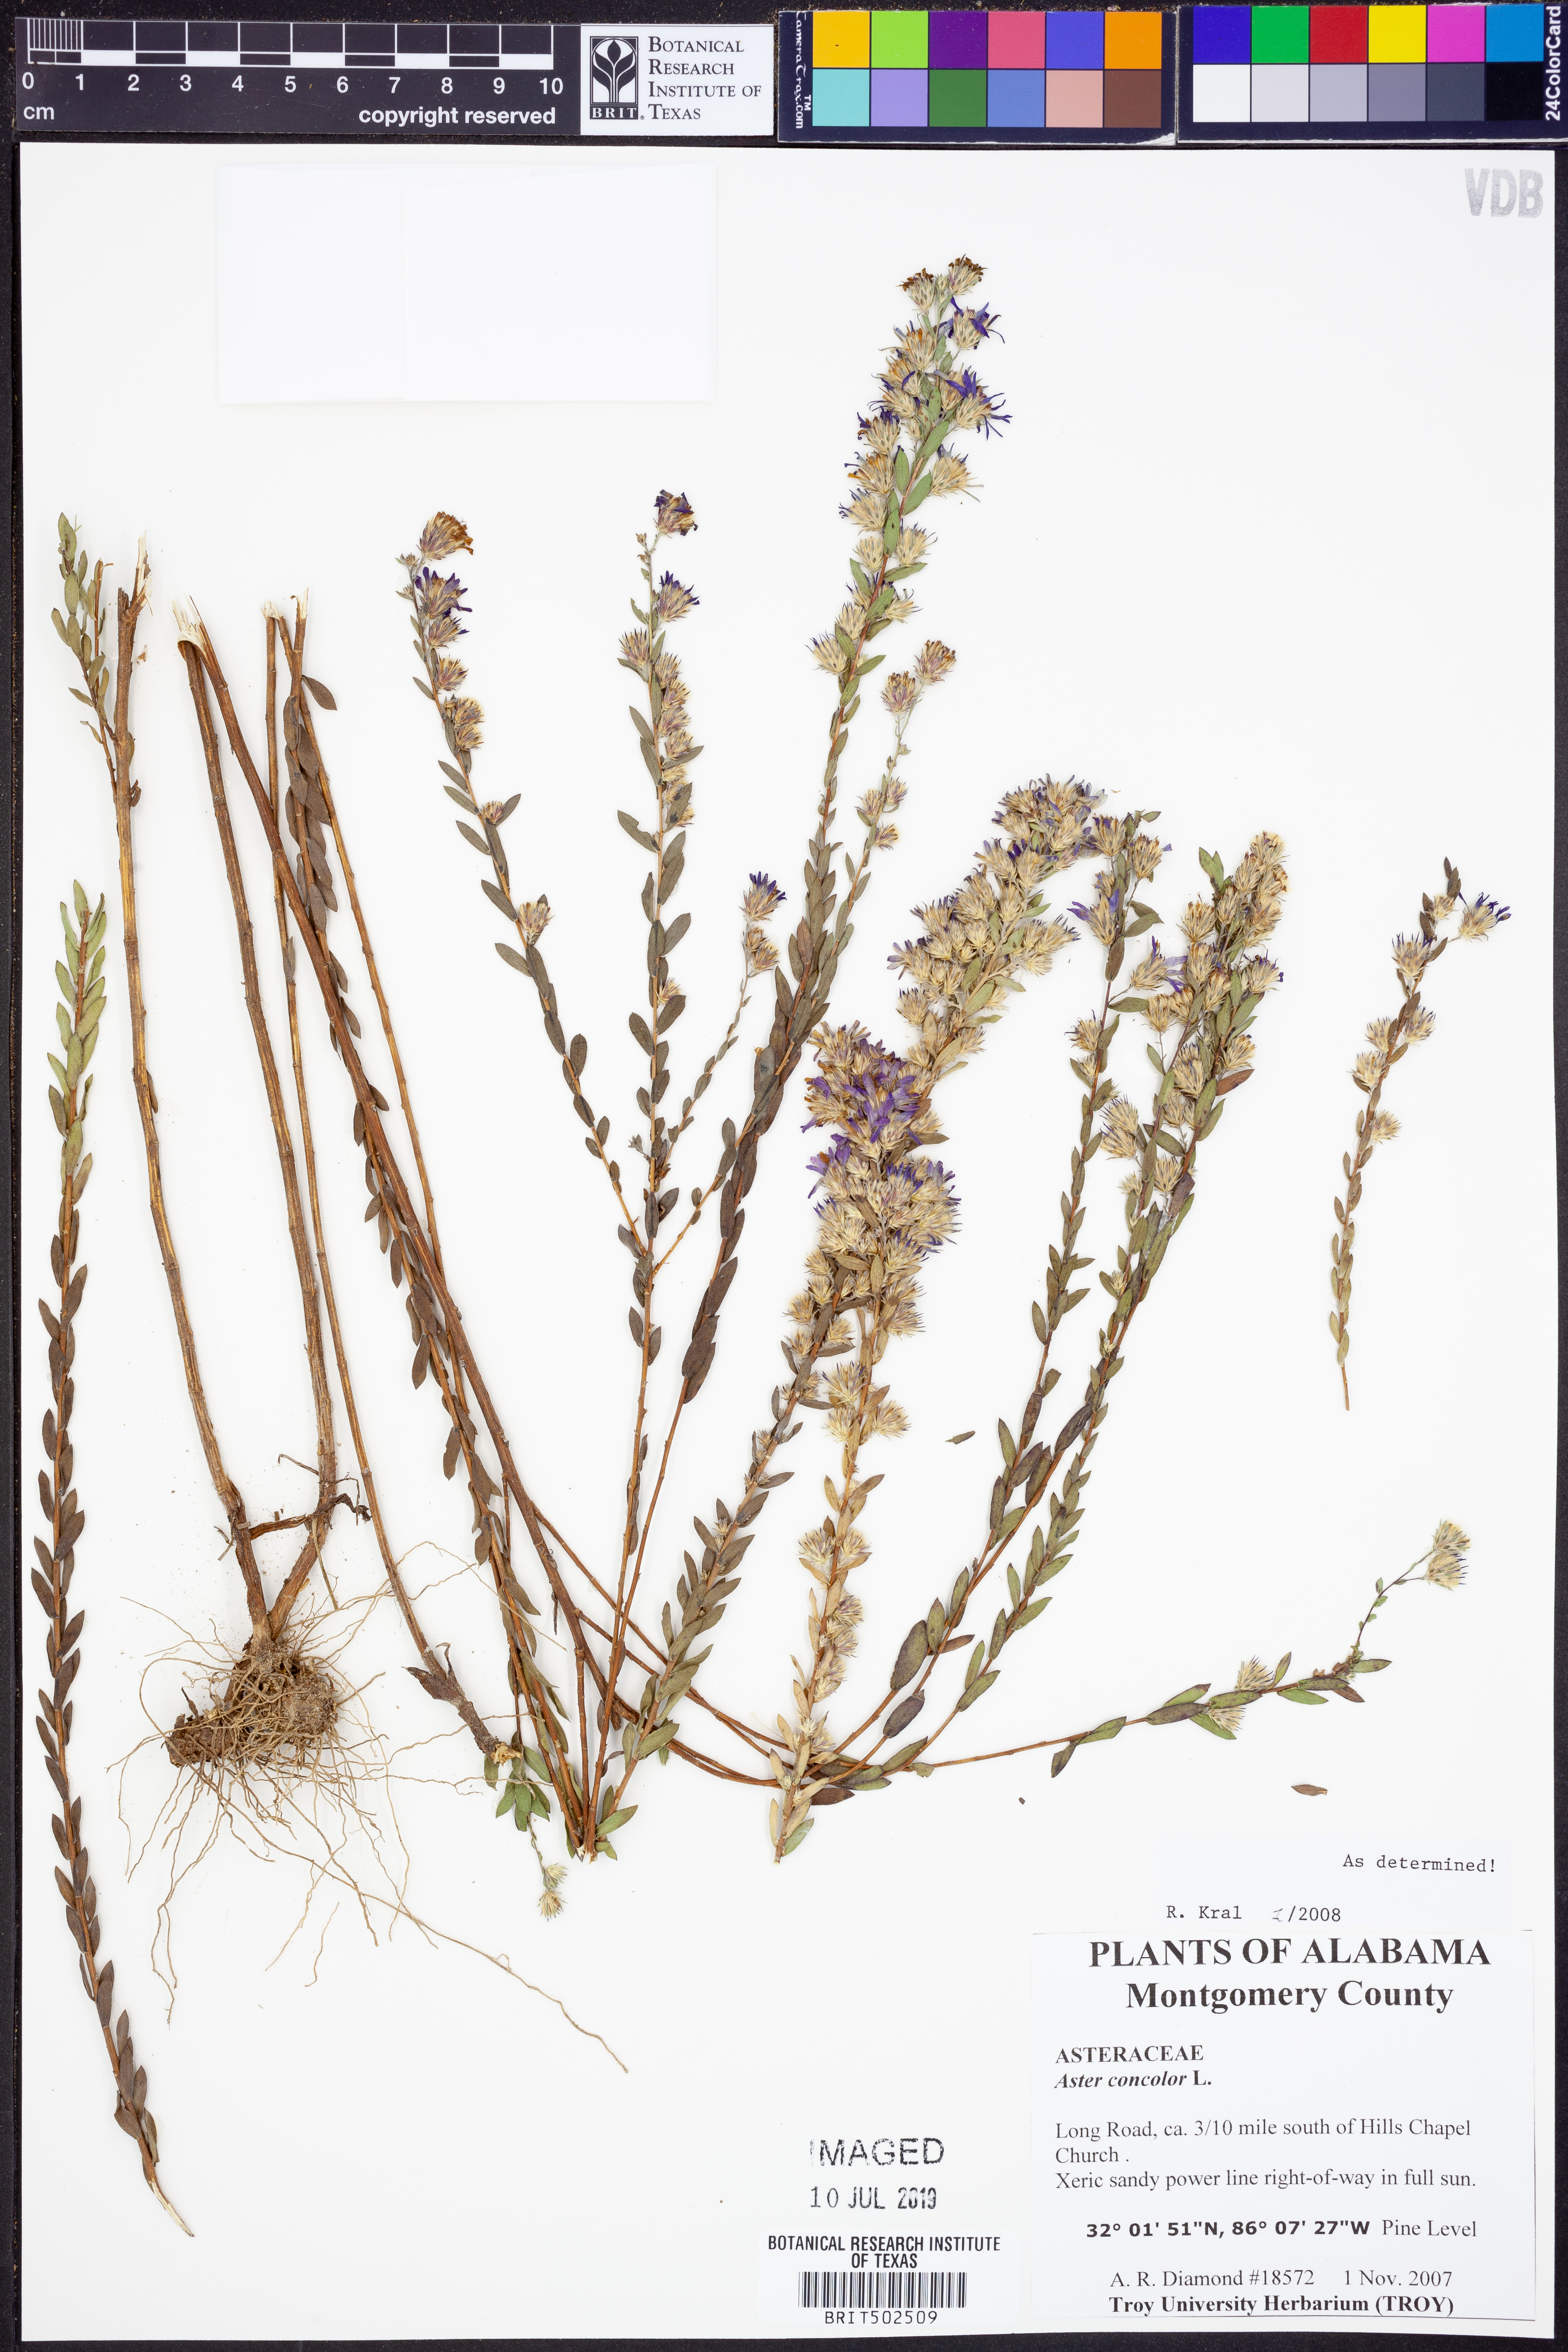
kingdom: Plantae
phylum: Tracheophyta
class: Magnoliopsida
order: Asterales
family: Asteraceae
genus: Symphyotrichum
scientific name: Symphyotrichum concolor
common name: Eastern silver aster
